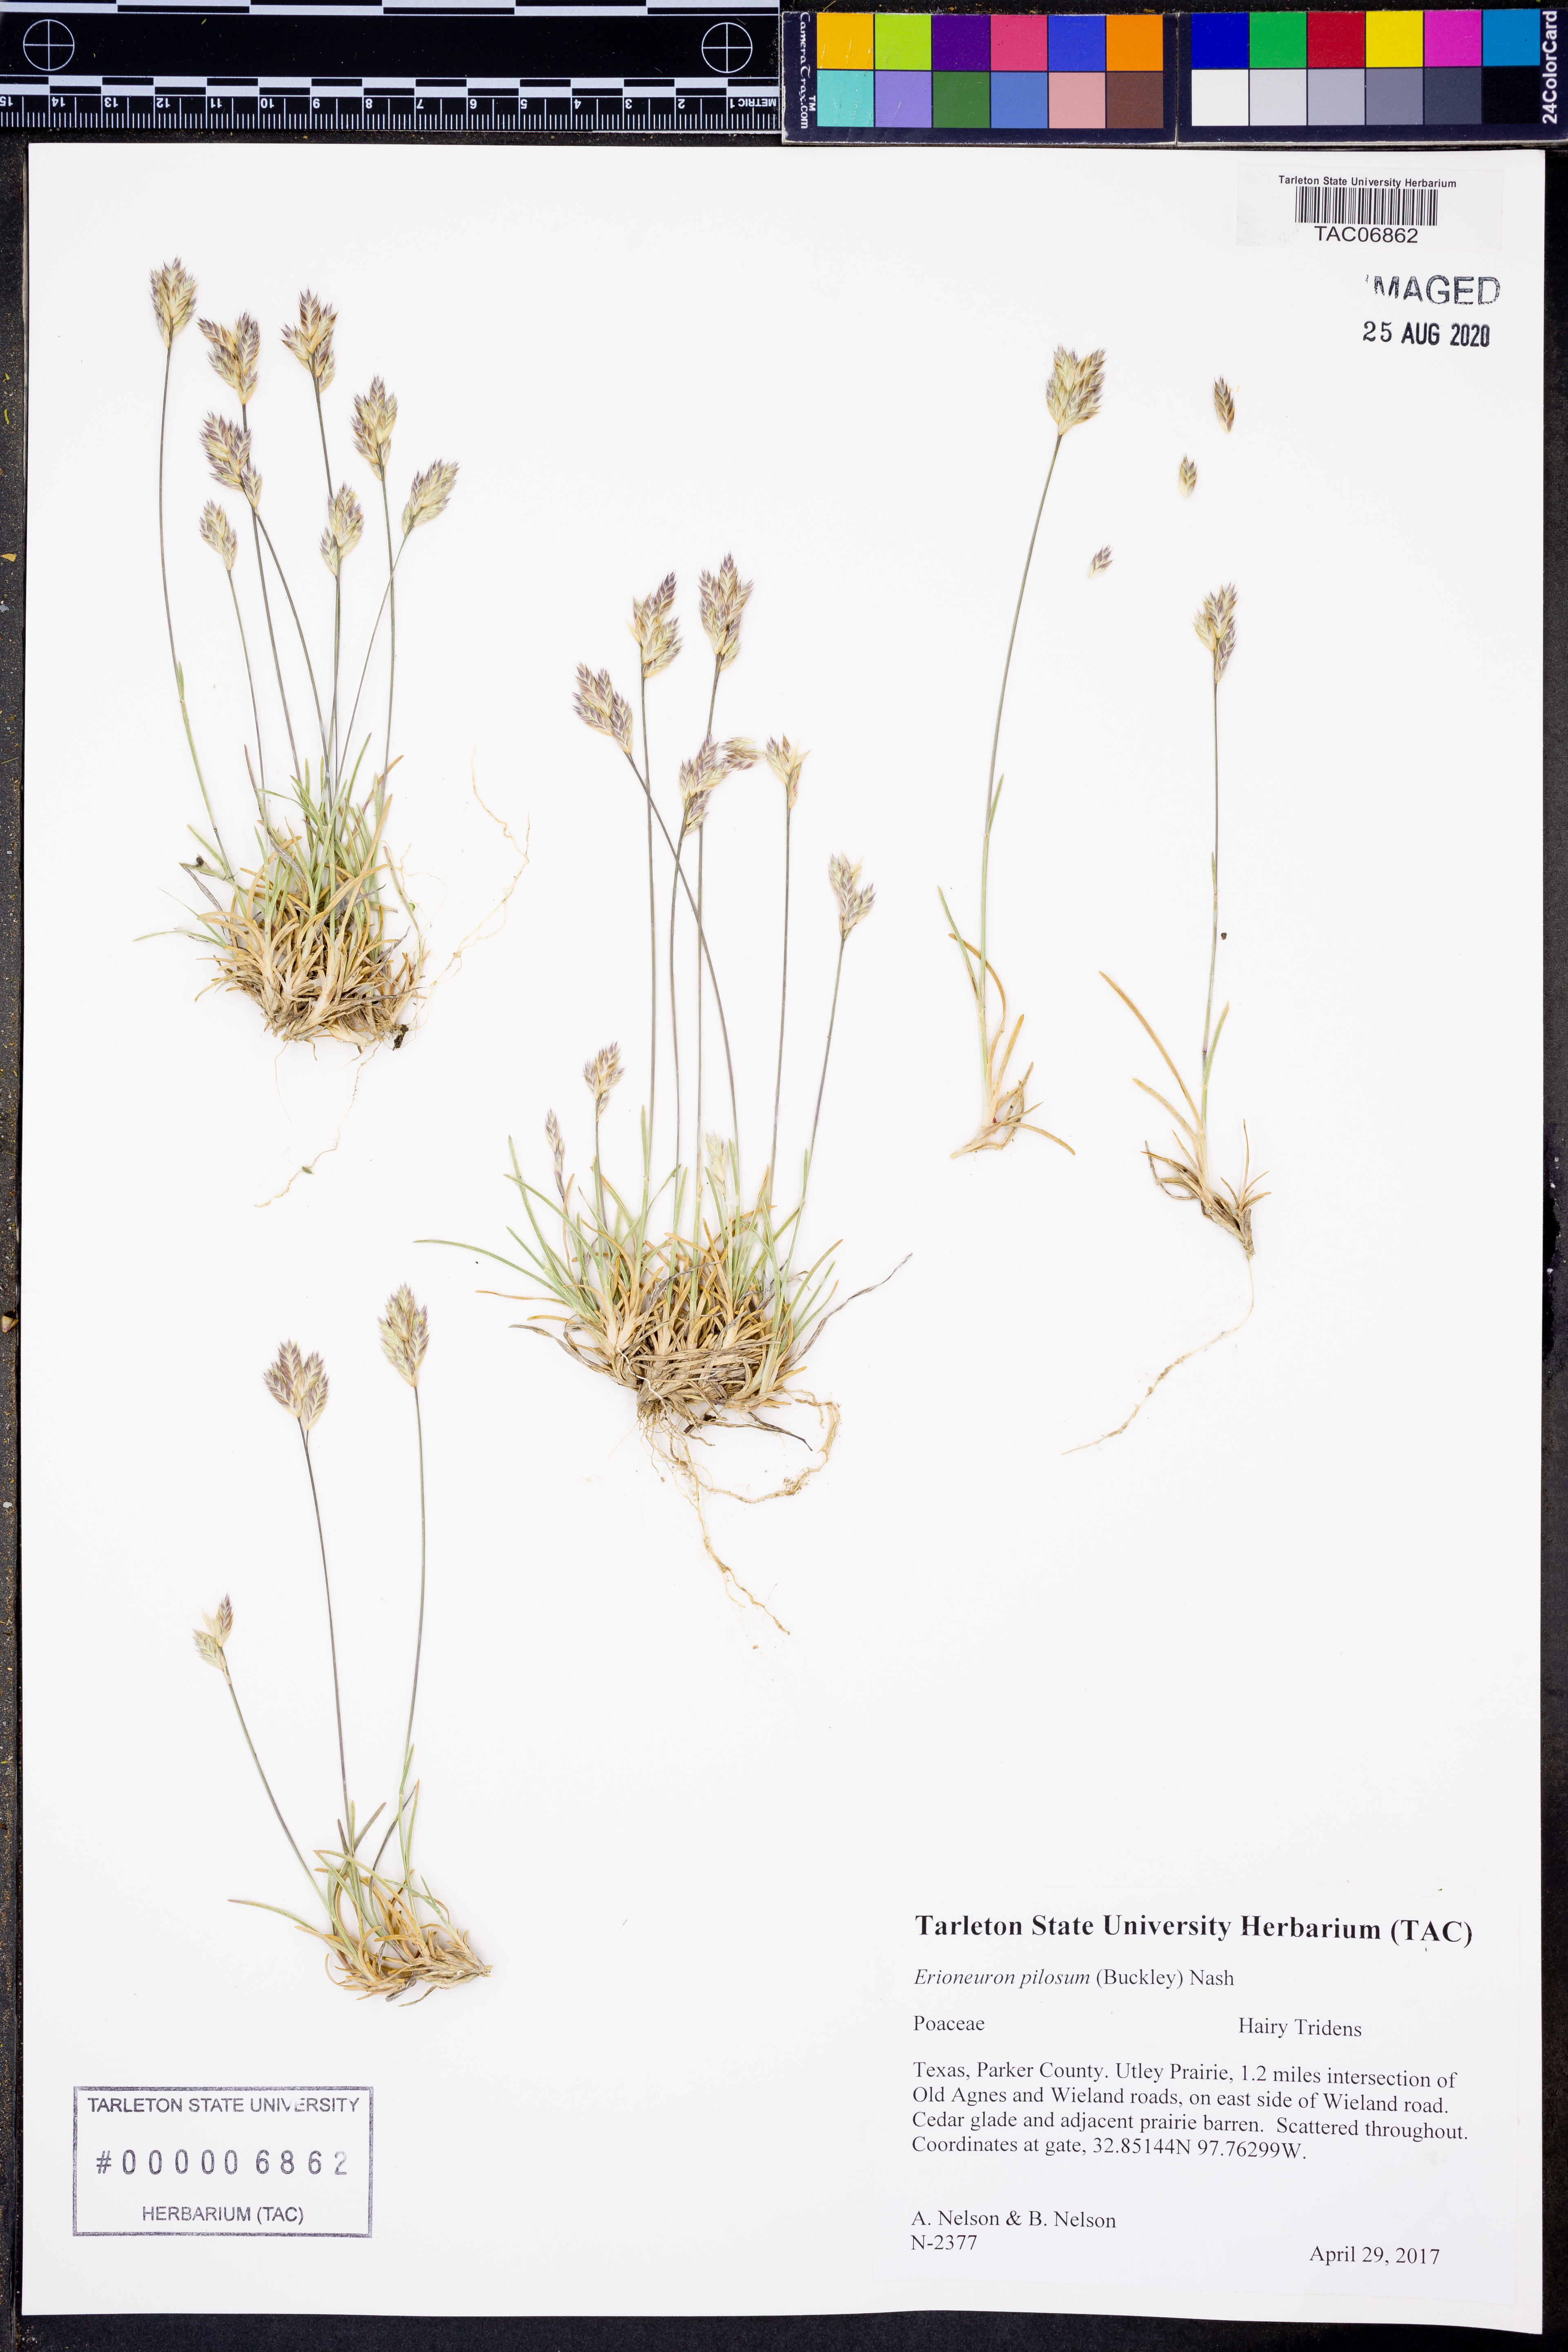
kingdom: Plantae
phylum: Tracheophyta
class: Liliopsida
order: Poales
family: Poaceae
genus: Erioneuron
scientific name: Erioneuron pilosum
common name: Hairy woolly grass
